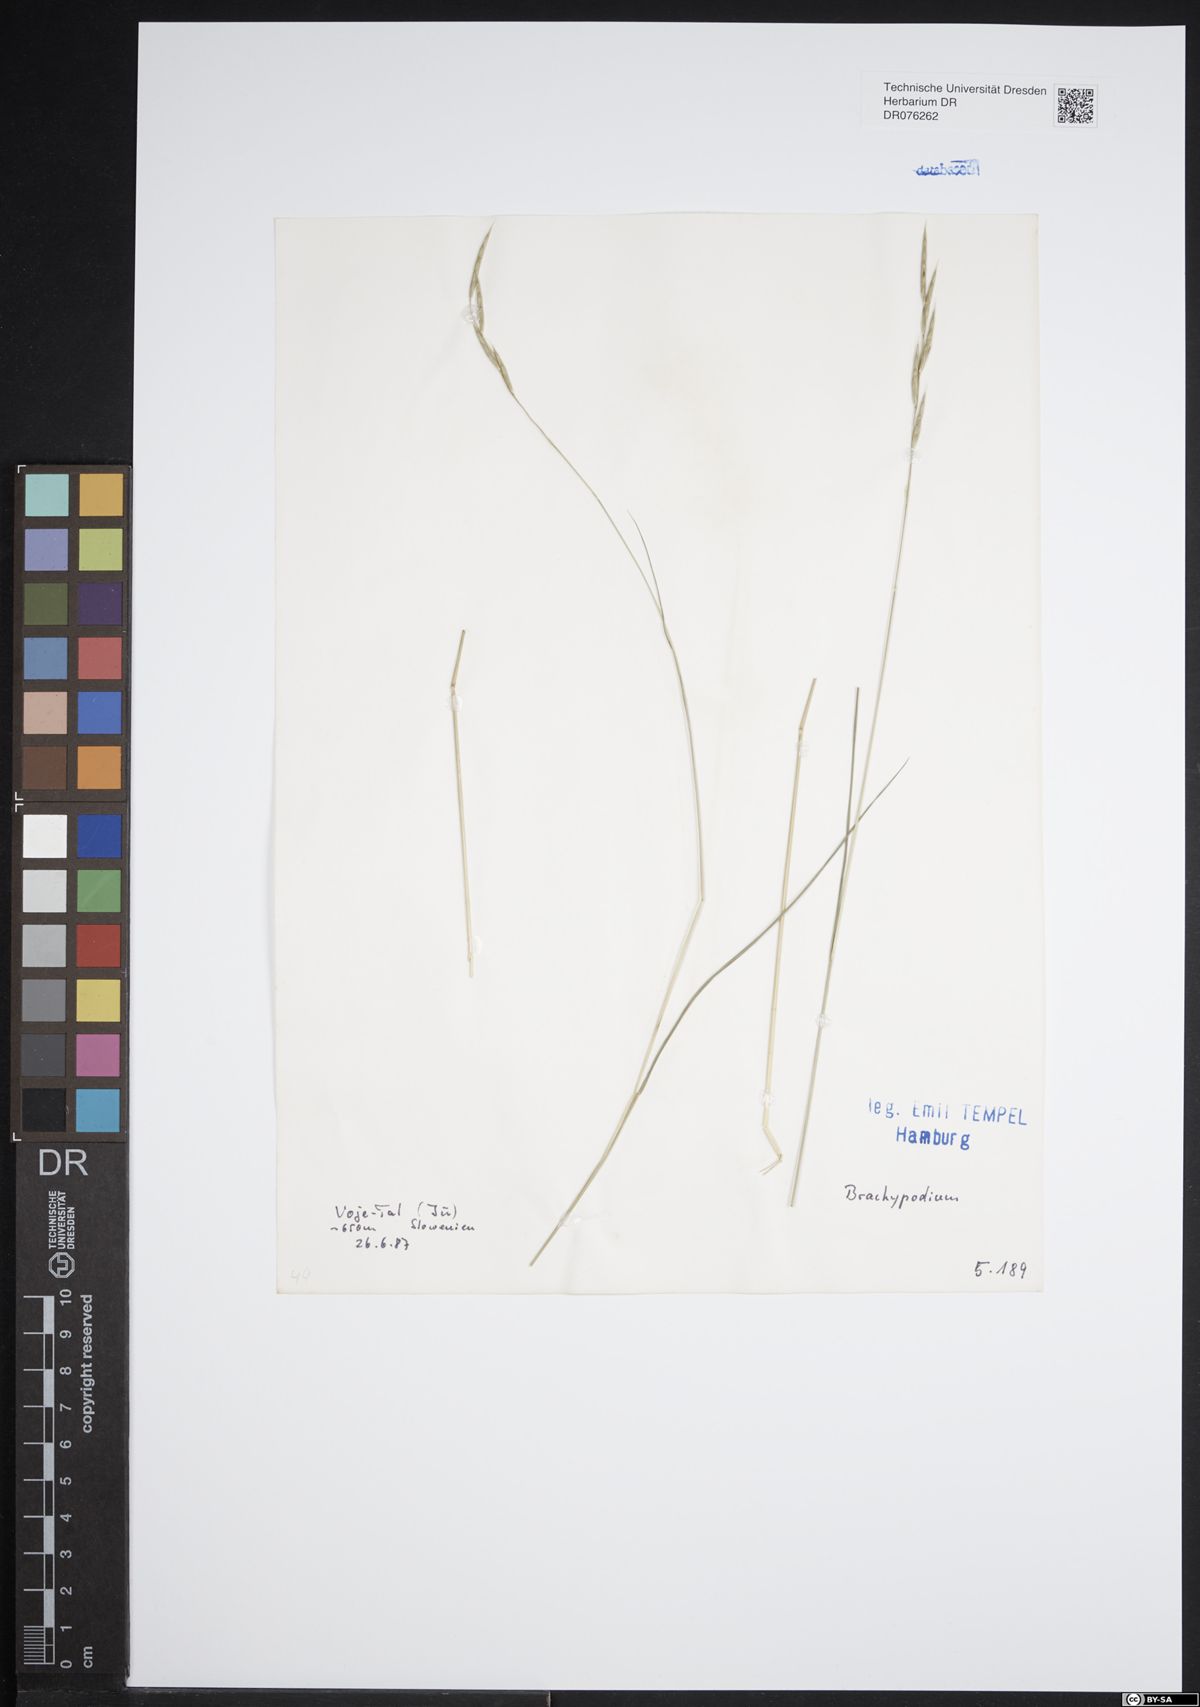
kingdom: Plantae
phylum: Tracheophyta
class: Liliopsida
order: Poales
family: Poaceae
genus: Brachypodium
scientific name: Brachypodium
